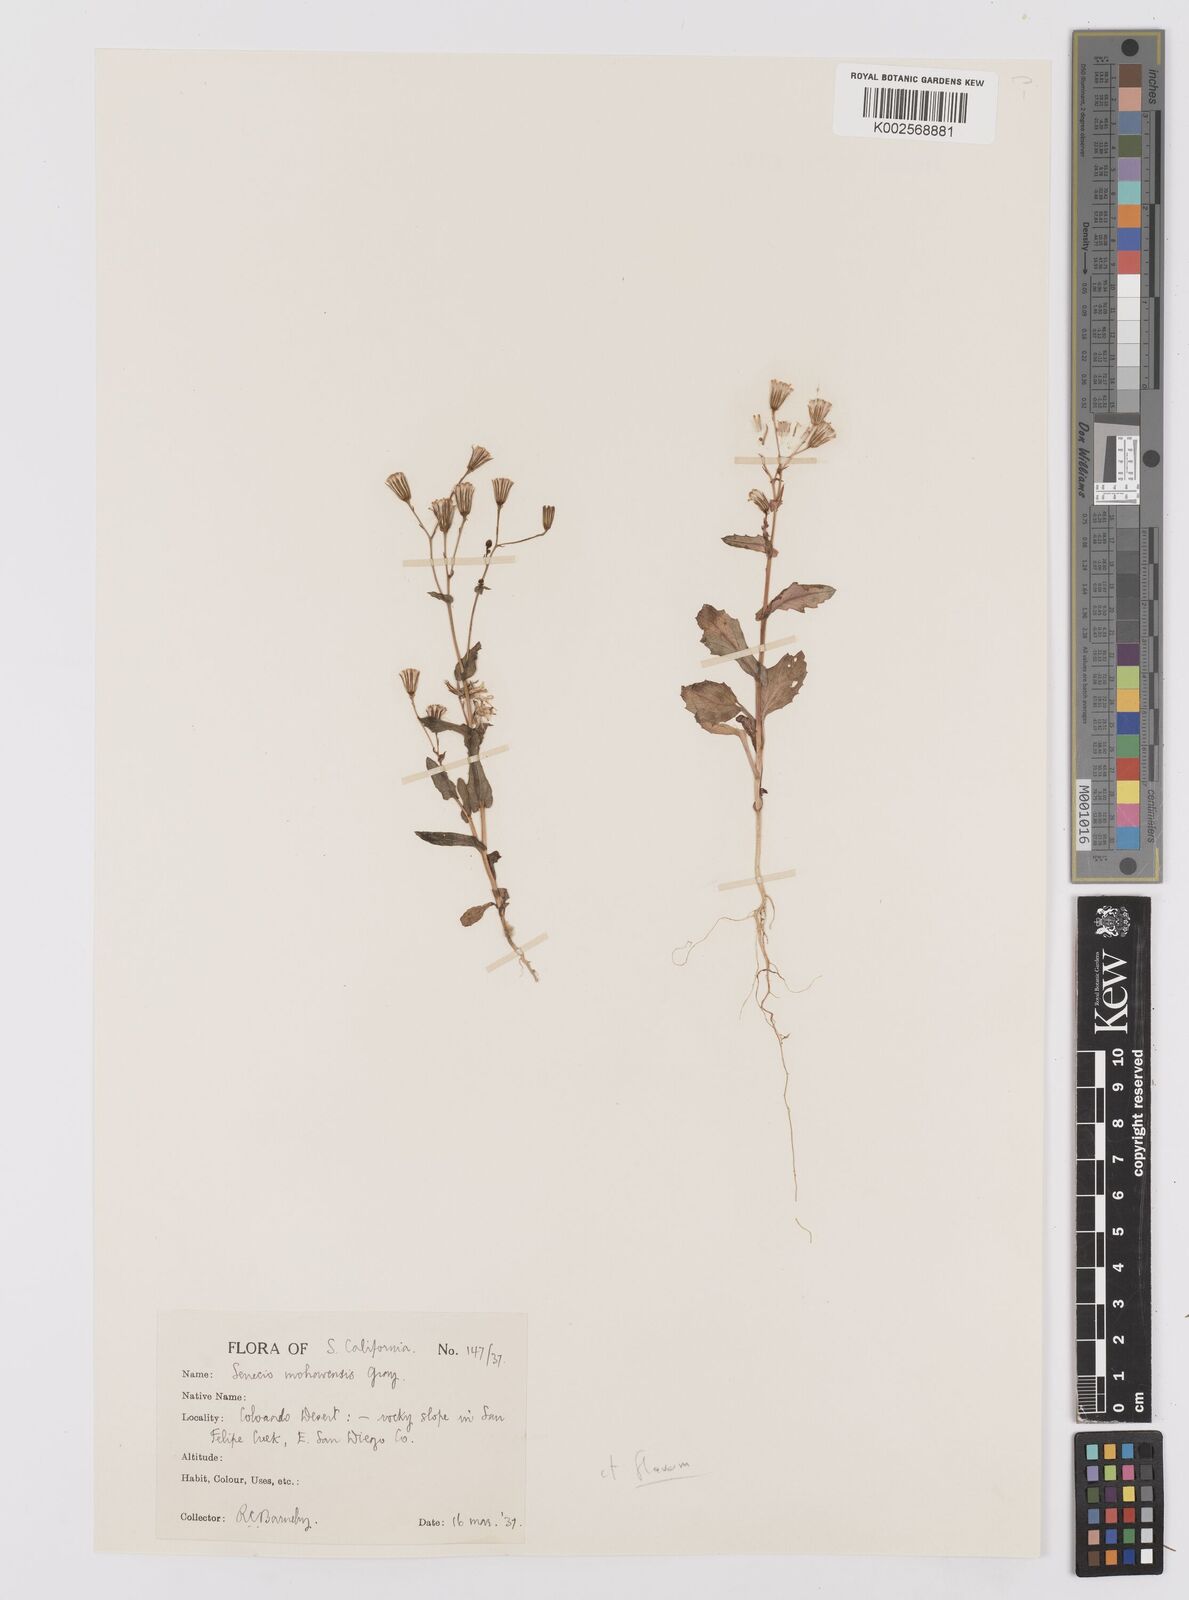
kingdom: Plantae
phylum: Tracheophyta
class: Magnoliopsida
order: Asterales
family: Asteraceae
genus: Senecio
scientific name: Senecio flavus
